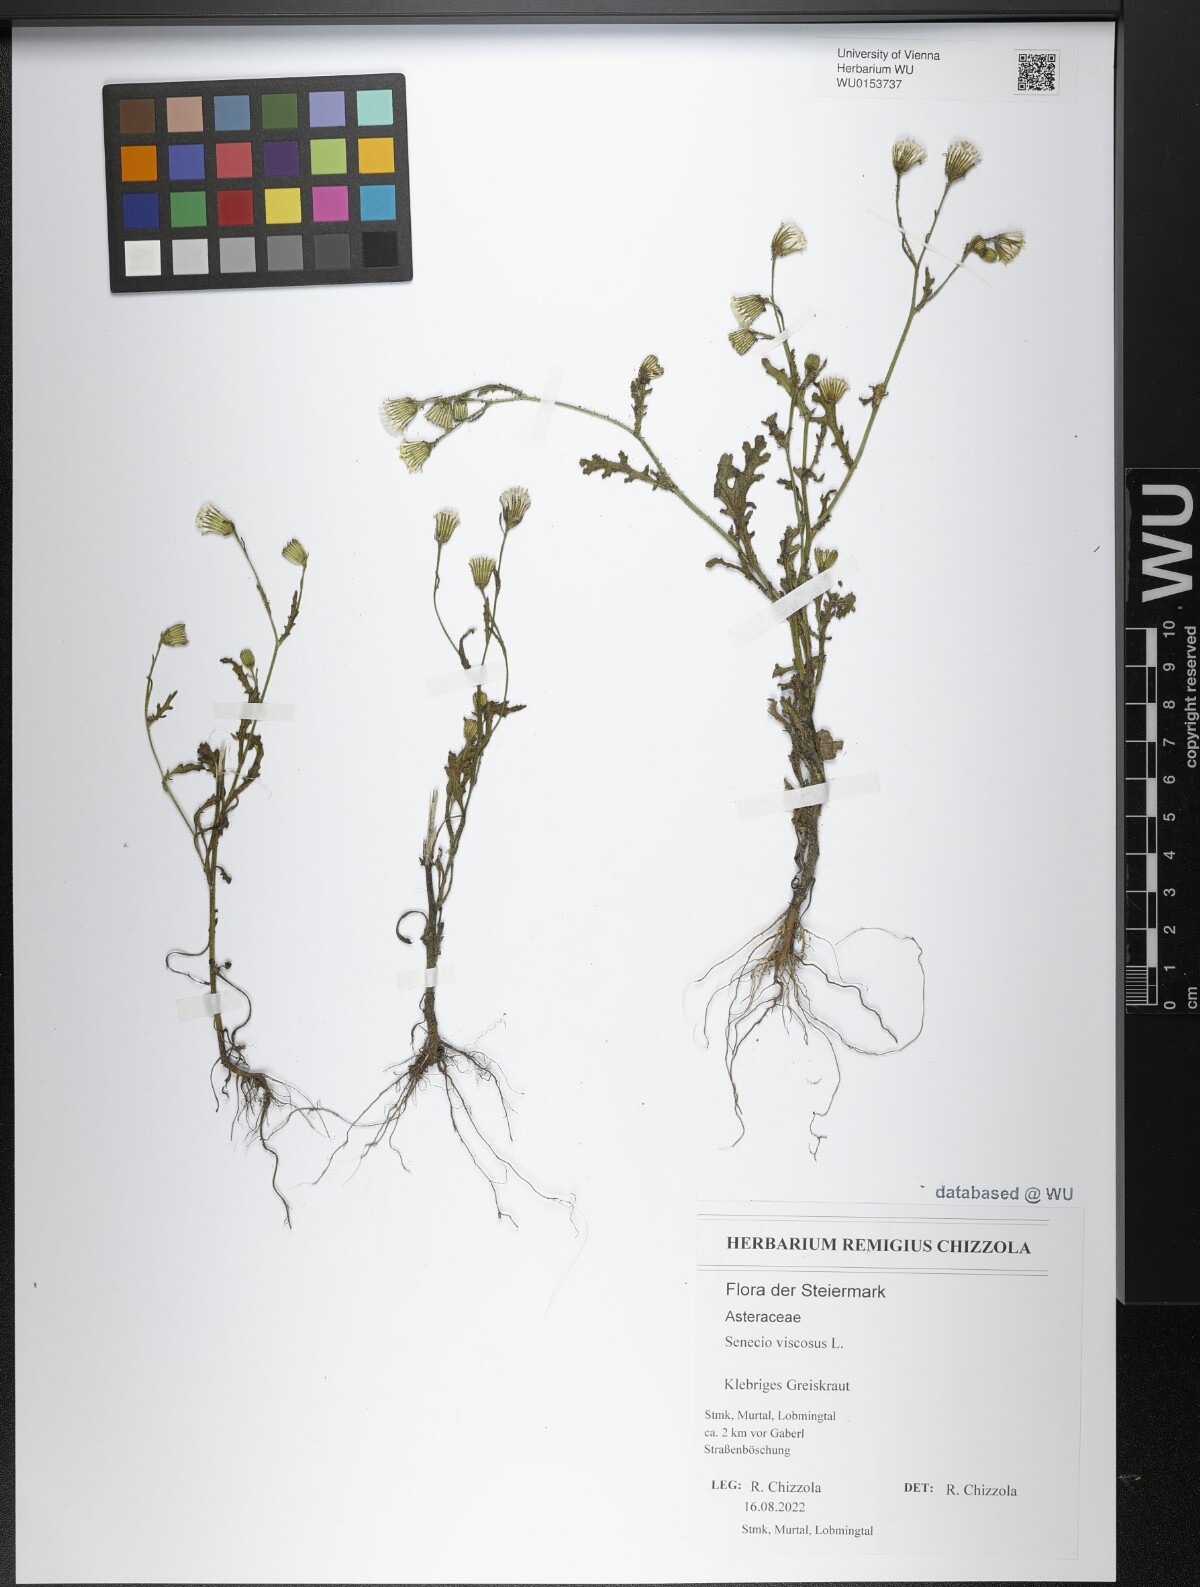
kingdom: Plantae
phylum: Tracheophyta
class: Magnoliopsida
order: Asterales
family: Asteraceae
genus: Senecio
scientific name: Senecio viscosus
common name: Sticky groundsel
